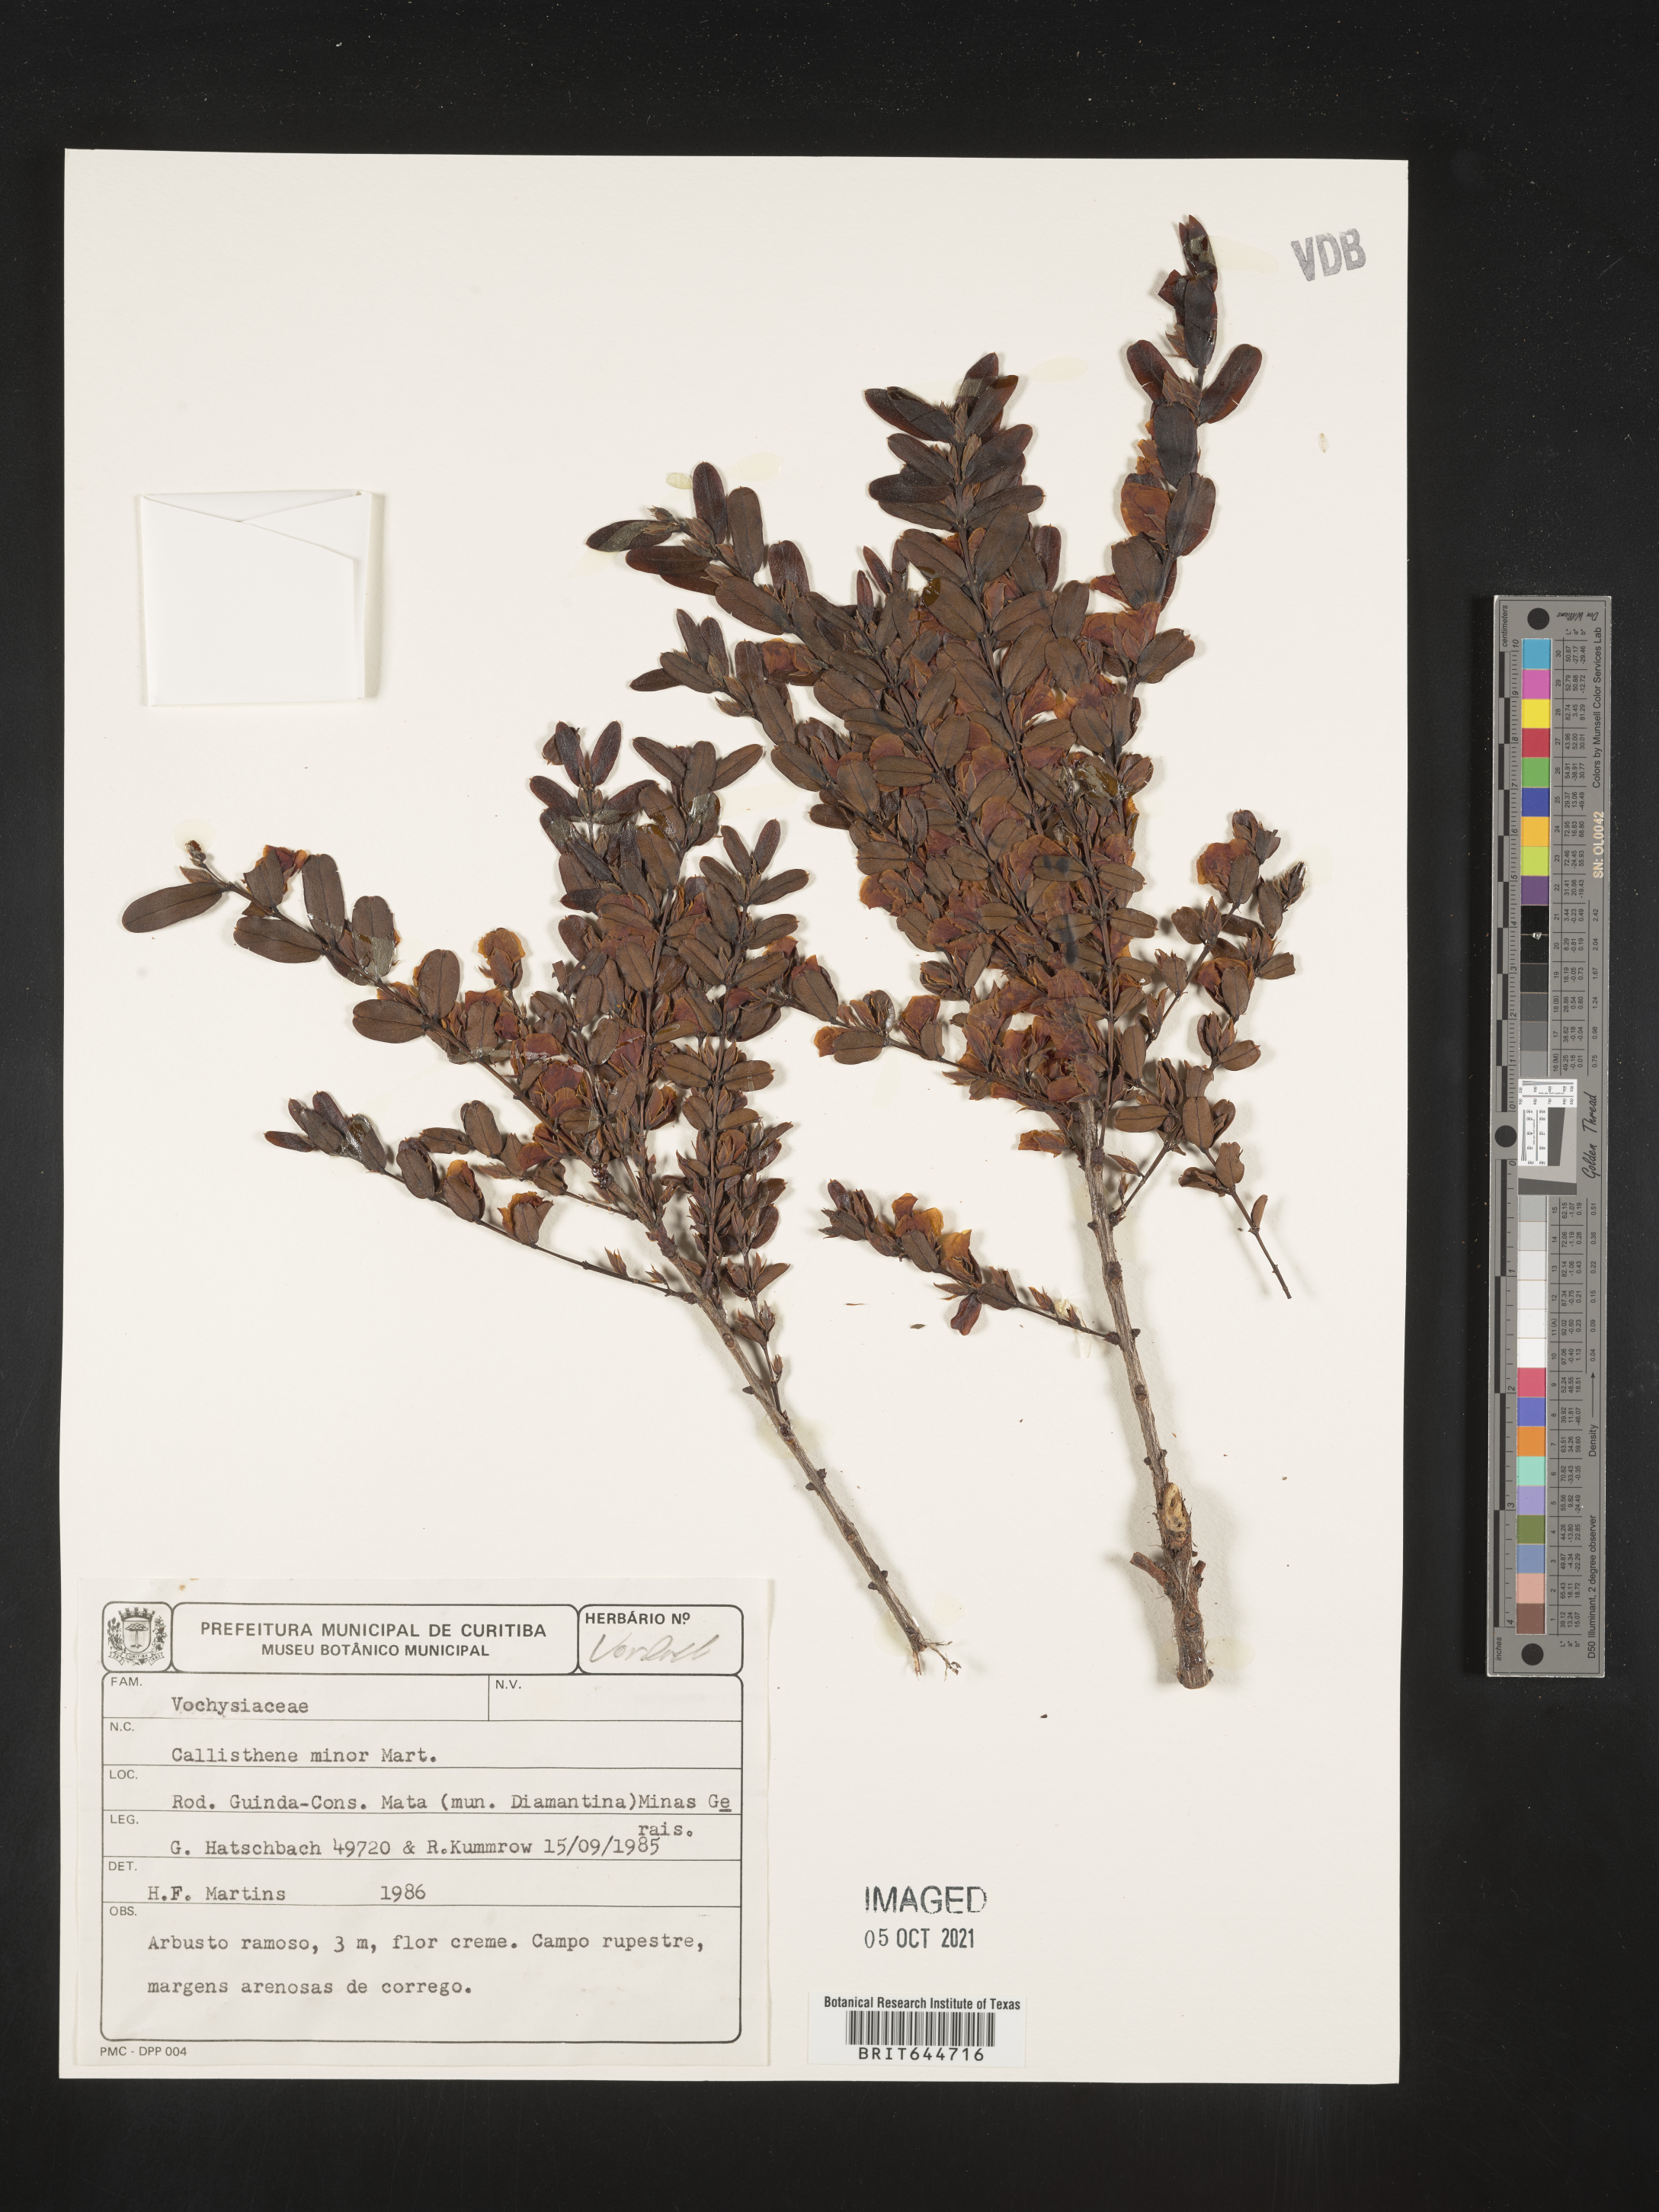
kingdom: Plantae
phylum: Tracheophyta
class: Magnoliopsida
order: Myrtales
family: Vochysiaceae
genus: Callisthene
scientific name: Callisthene
